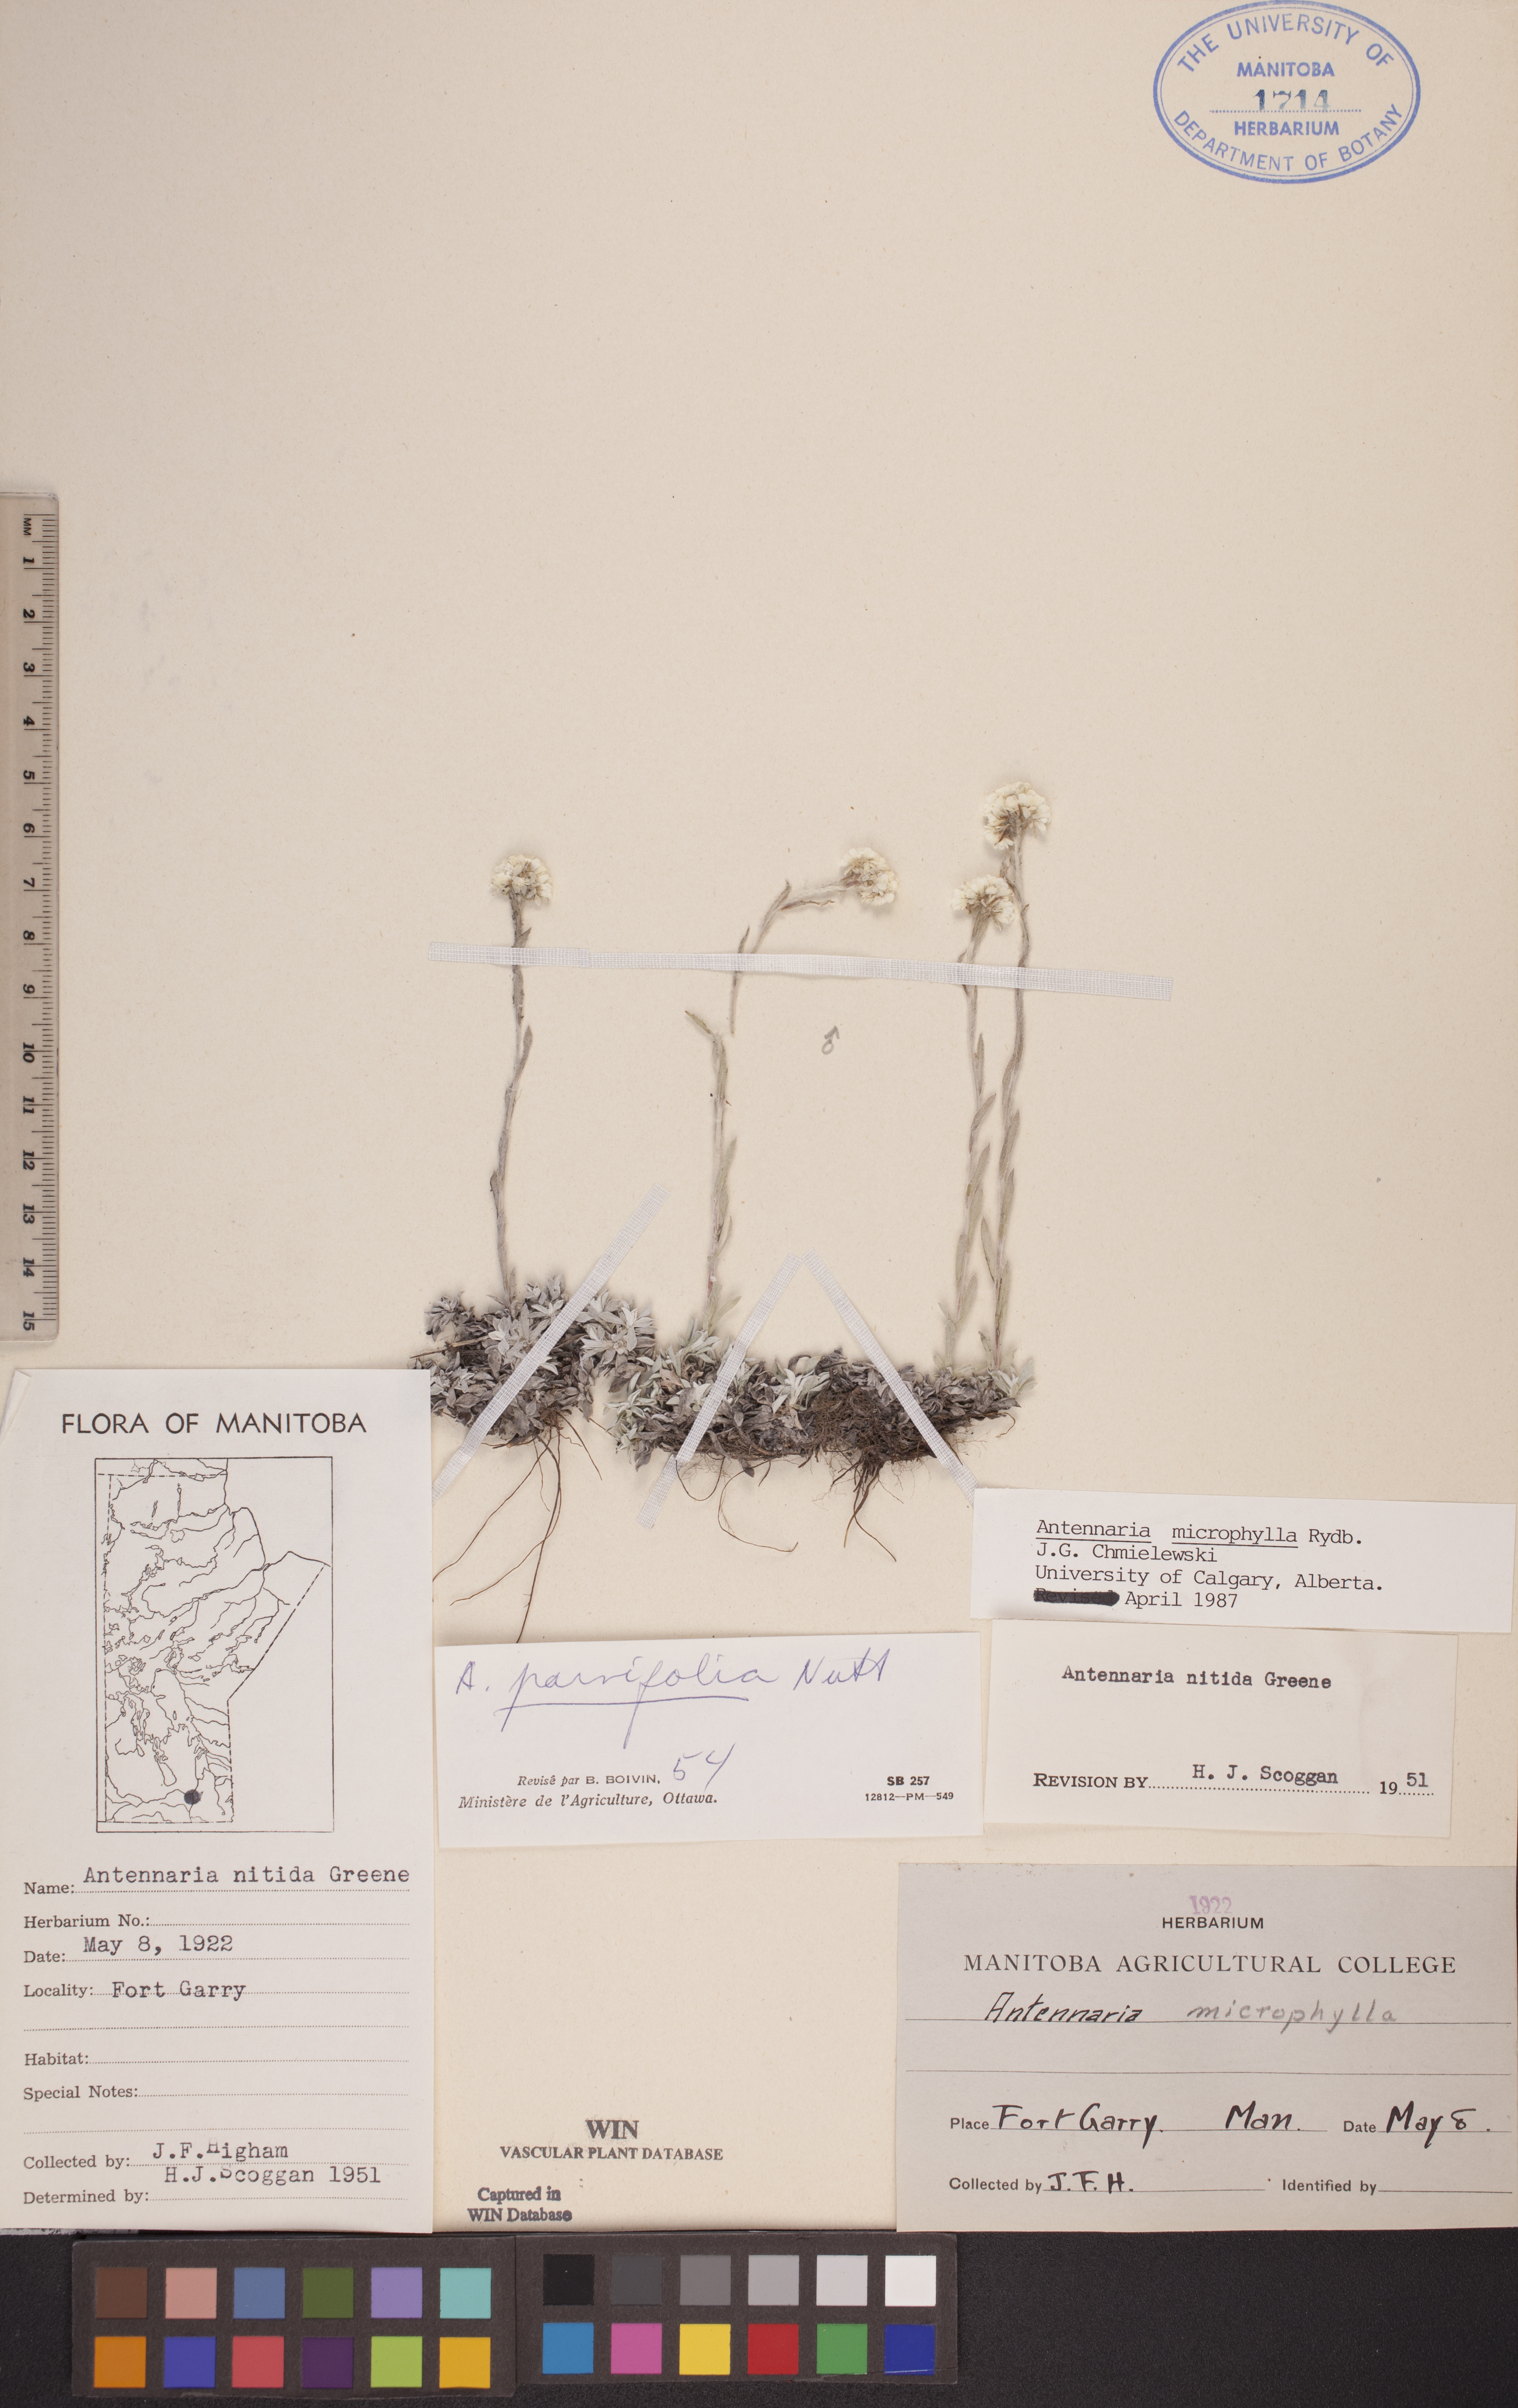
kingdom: Plantae
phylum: Tracheophyta
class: Magnoliopsida
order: Asterales
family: Asteraceae
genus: Antennaria
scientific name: Antennaria microphylla
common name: Littleleaf pussytoes
